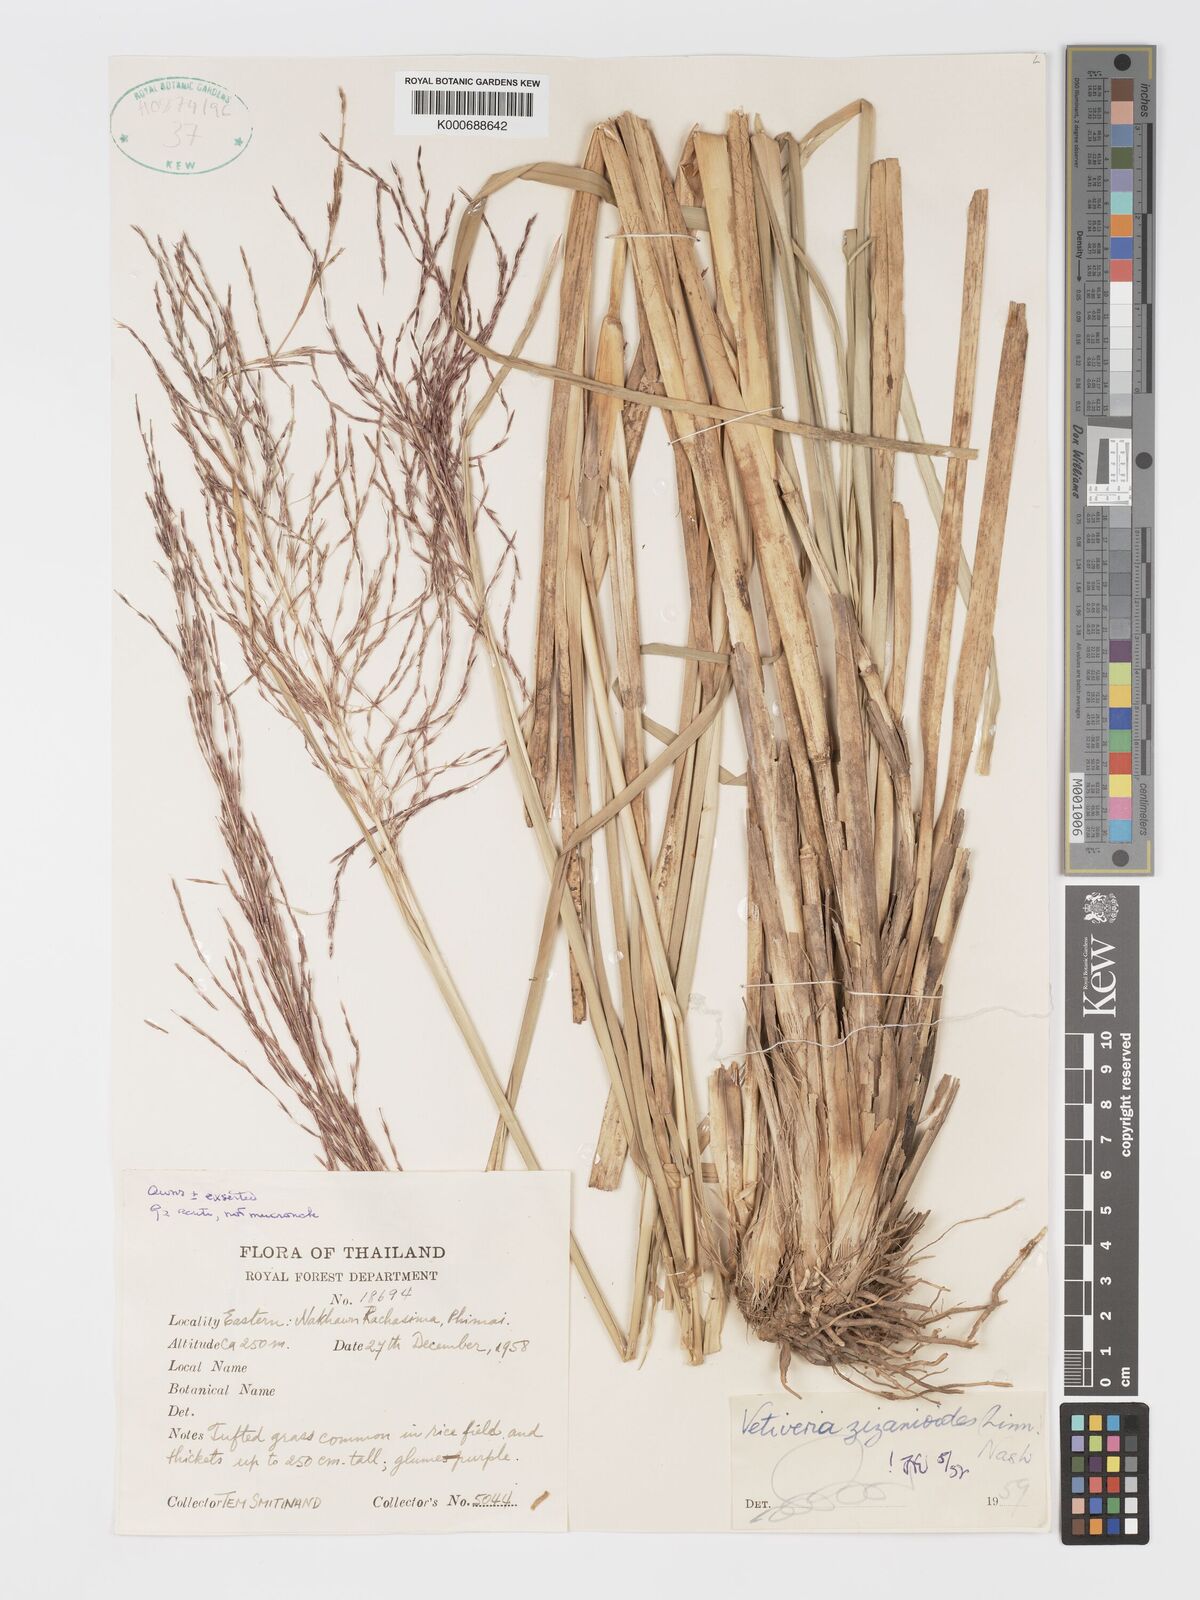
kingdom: Plantae
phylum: Tracheophyta
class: Liliopsida
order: Poales
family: Poaceae
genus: Chrysopogon
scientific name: Chrysopogon zizanioides
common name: False beardgrass
